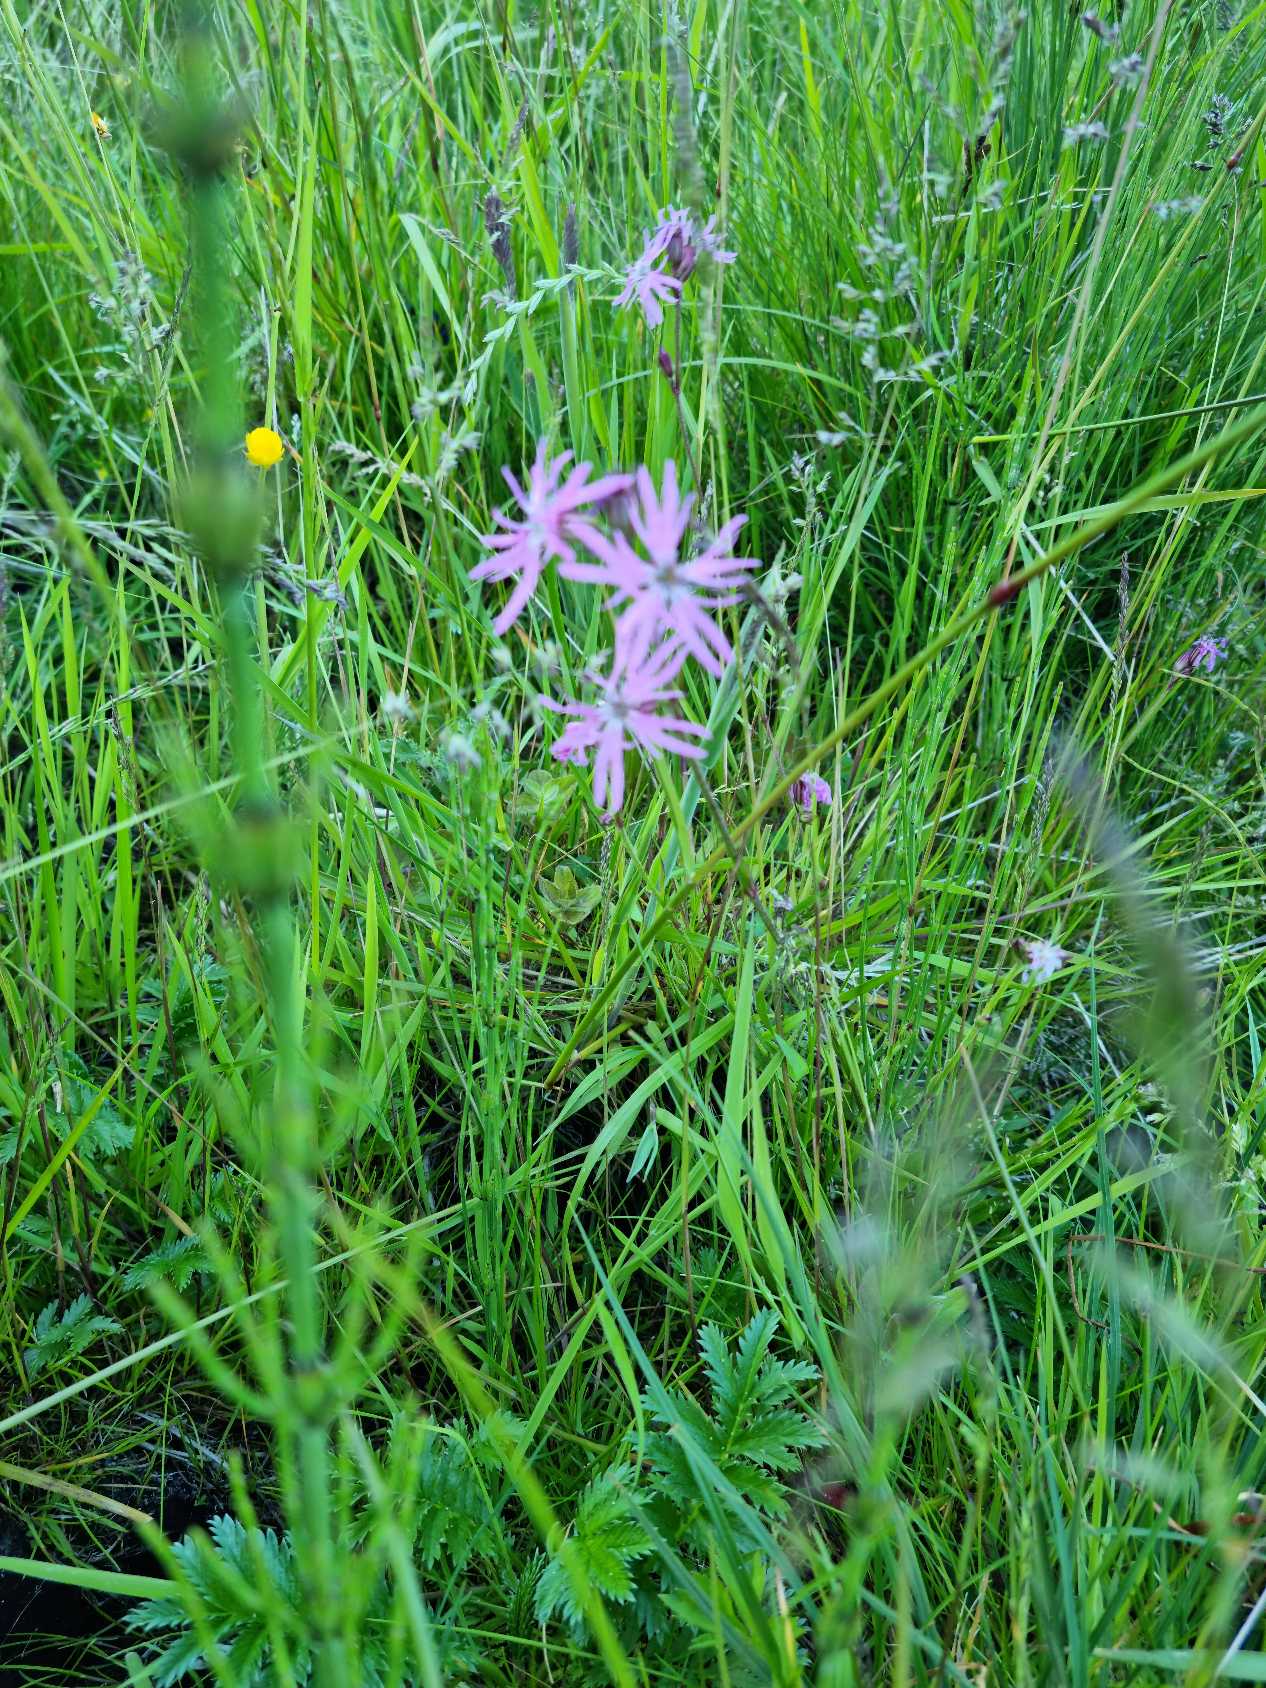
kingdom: Plantae
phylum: Tracheophyta
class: Magnoliopsida
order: Caryophyllales
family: Caryophyllaceae
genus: Silene
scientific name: Silene flos-cuculi
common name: Trævlekrone
